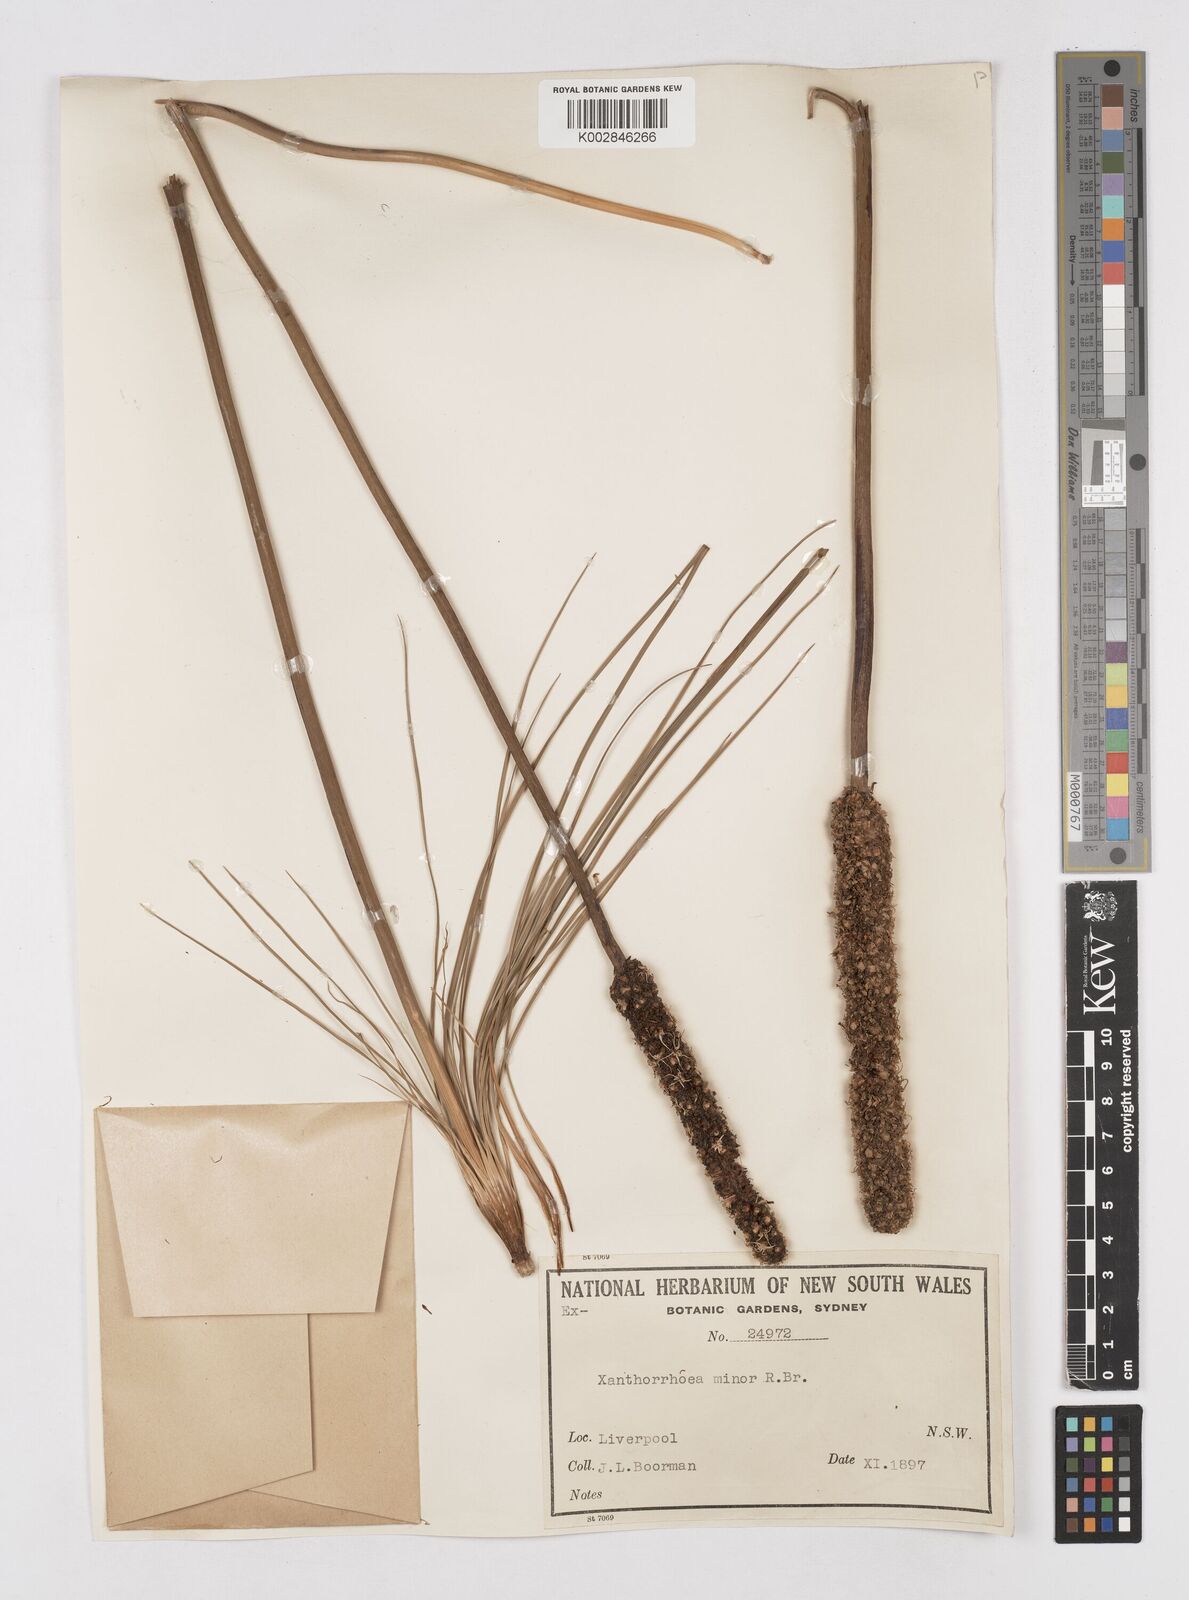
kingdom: Plantae
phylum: Tracheophyta
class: Liliopsida
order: Asparagales
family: Asphodelaceae
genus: Xanthorrhoea
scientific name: Xanthorrhoea minor
